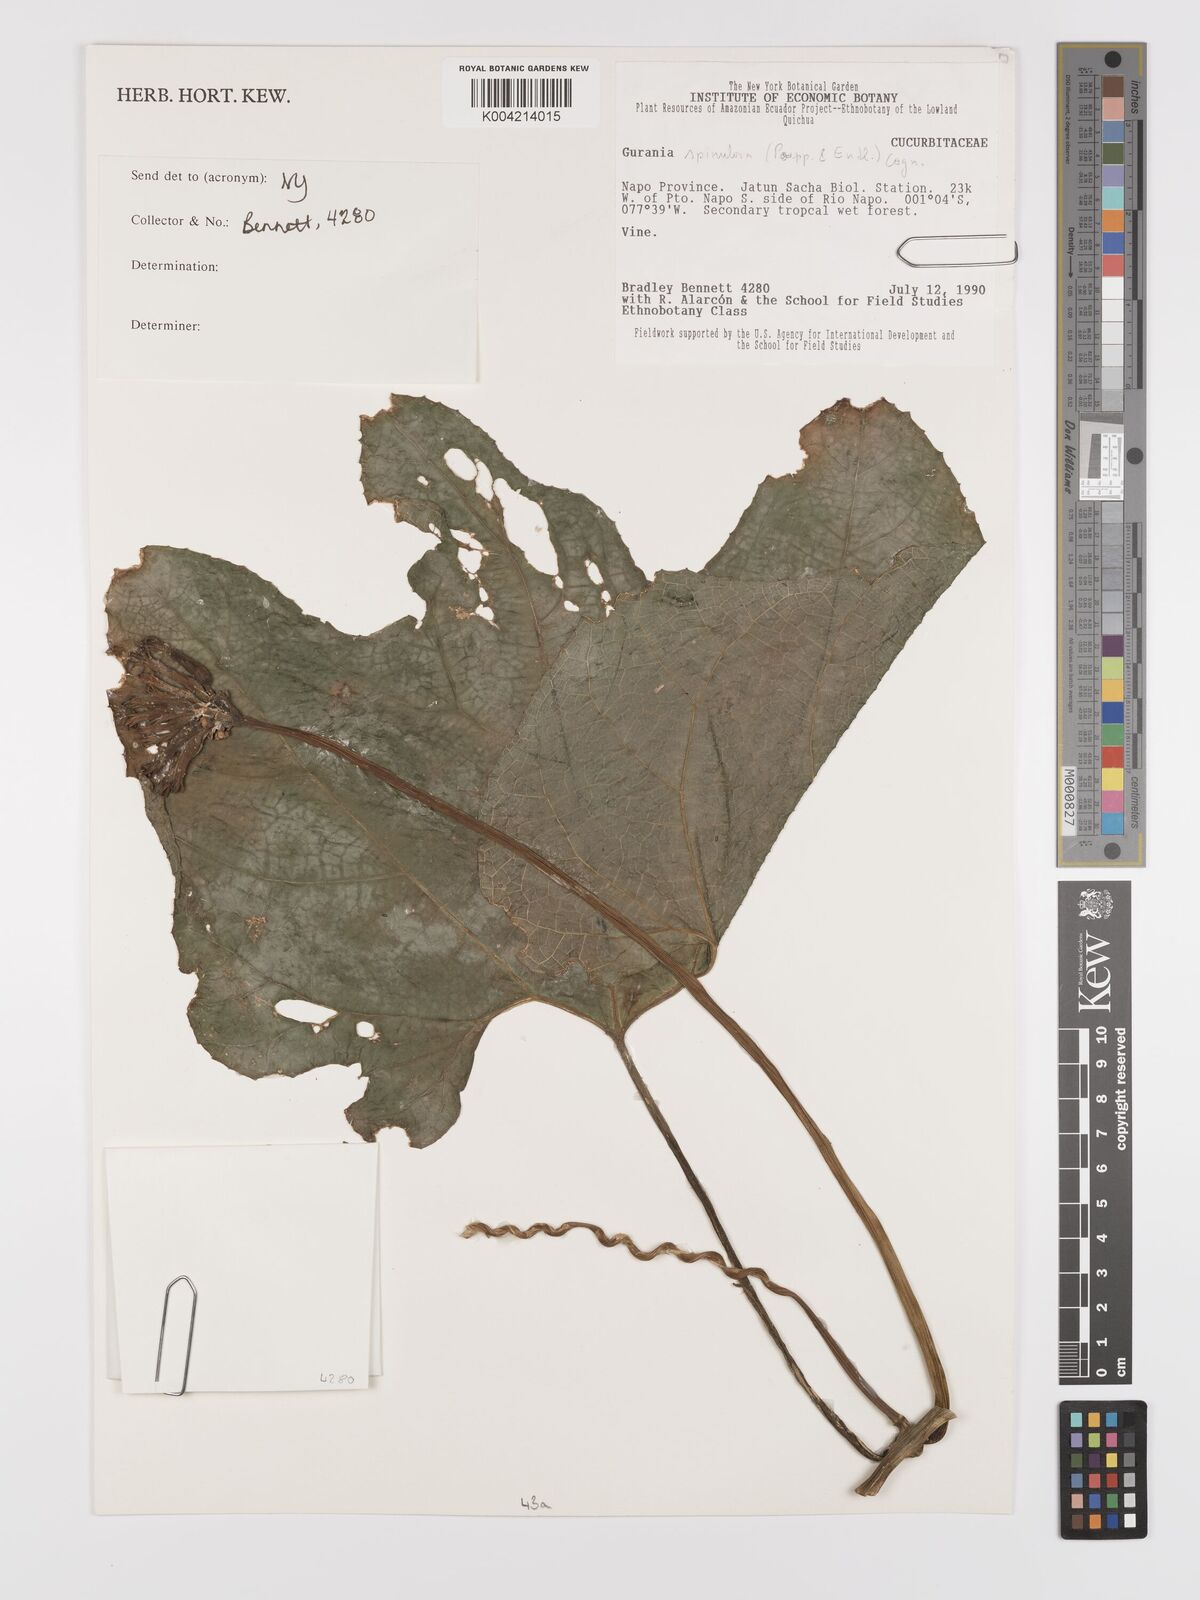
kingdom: Plantae
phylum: Tracheophyta
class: Magnoliopsida
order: Cucurbitales
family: Cucurbitaceae
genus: Gurania
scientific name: Gurania lobata
